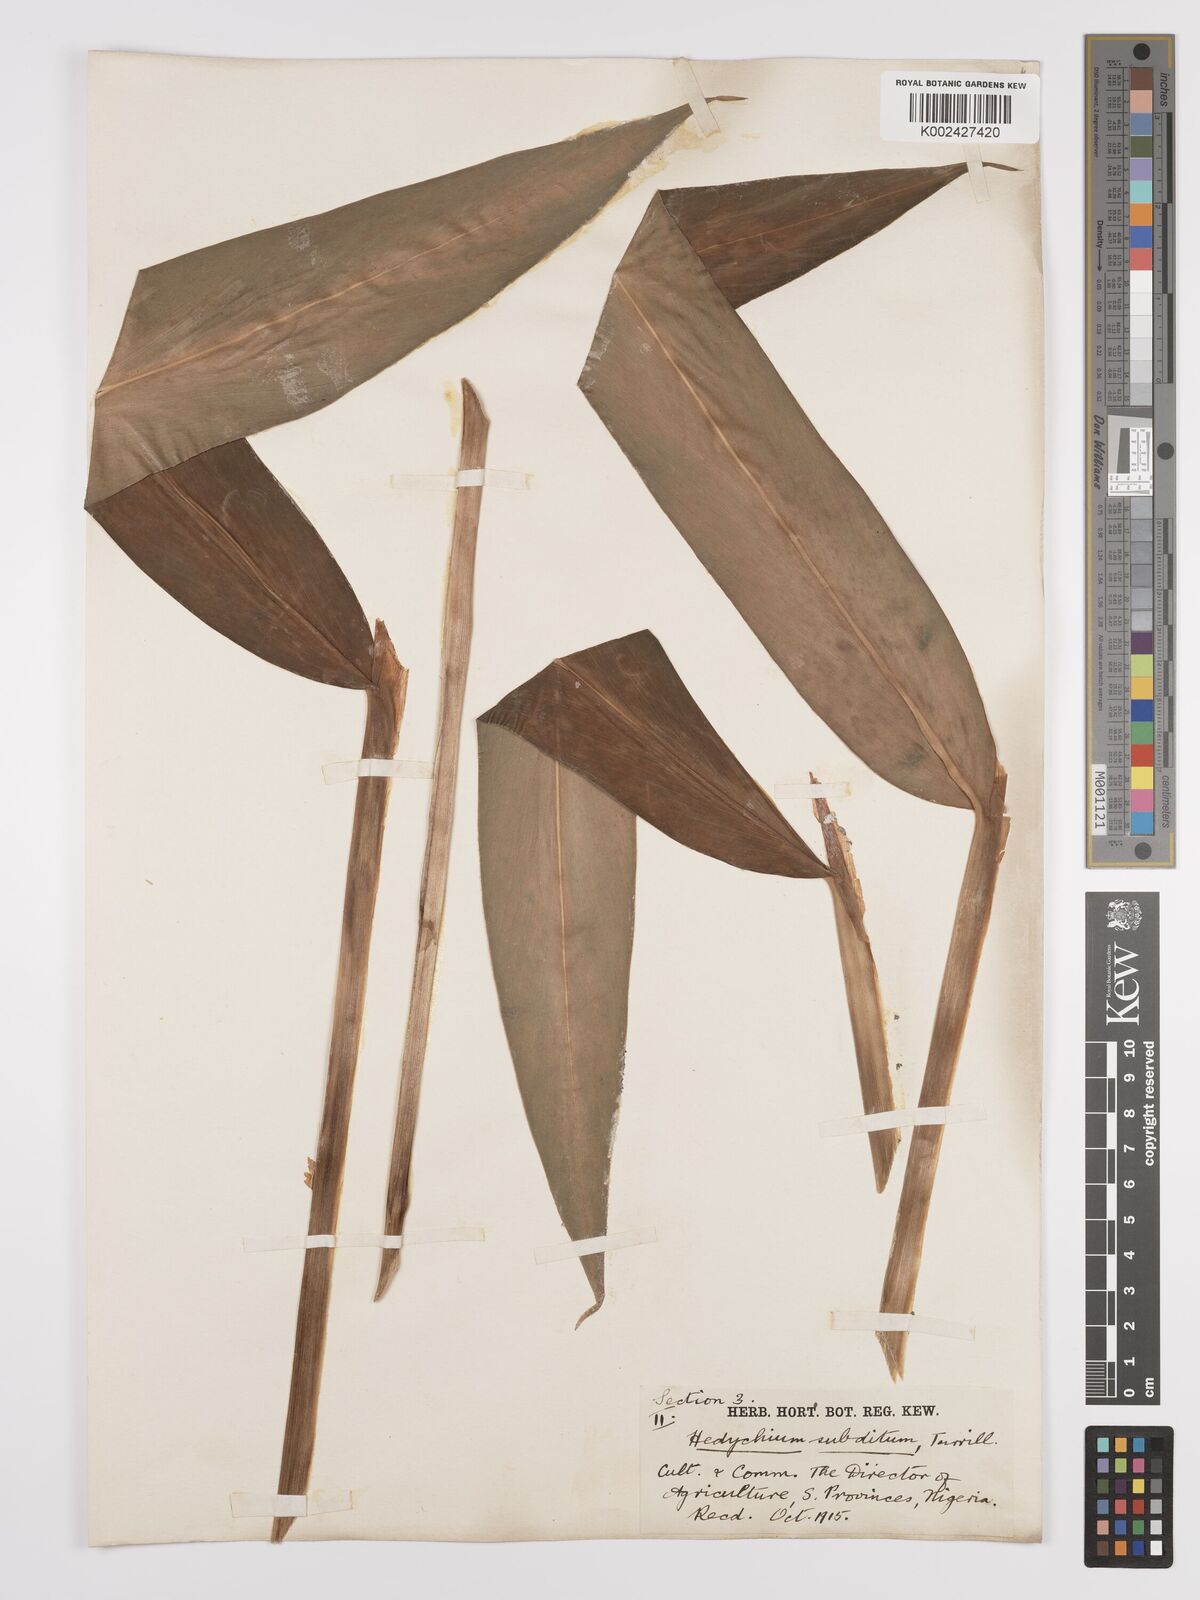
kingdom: Plantae
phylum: Tracheophyta
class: Liliopsida
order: Zingiberales
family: Zingiberaceae
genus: Hedychium
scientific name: Hedychium flavescens
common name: Yellow ginger
